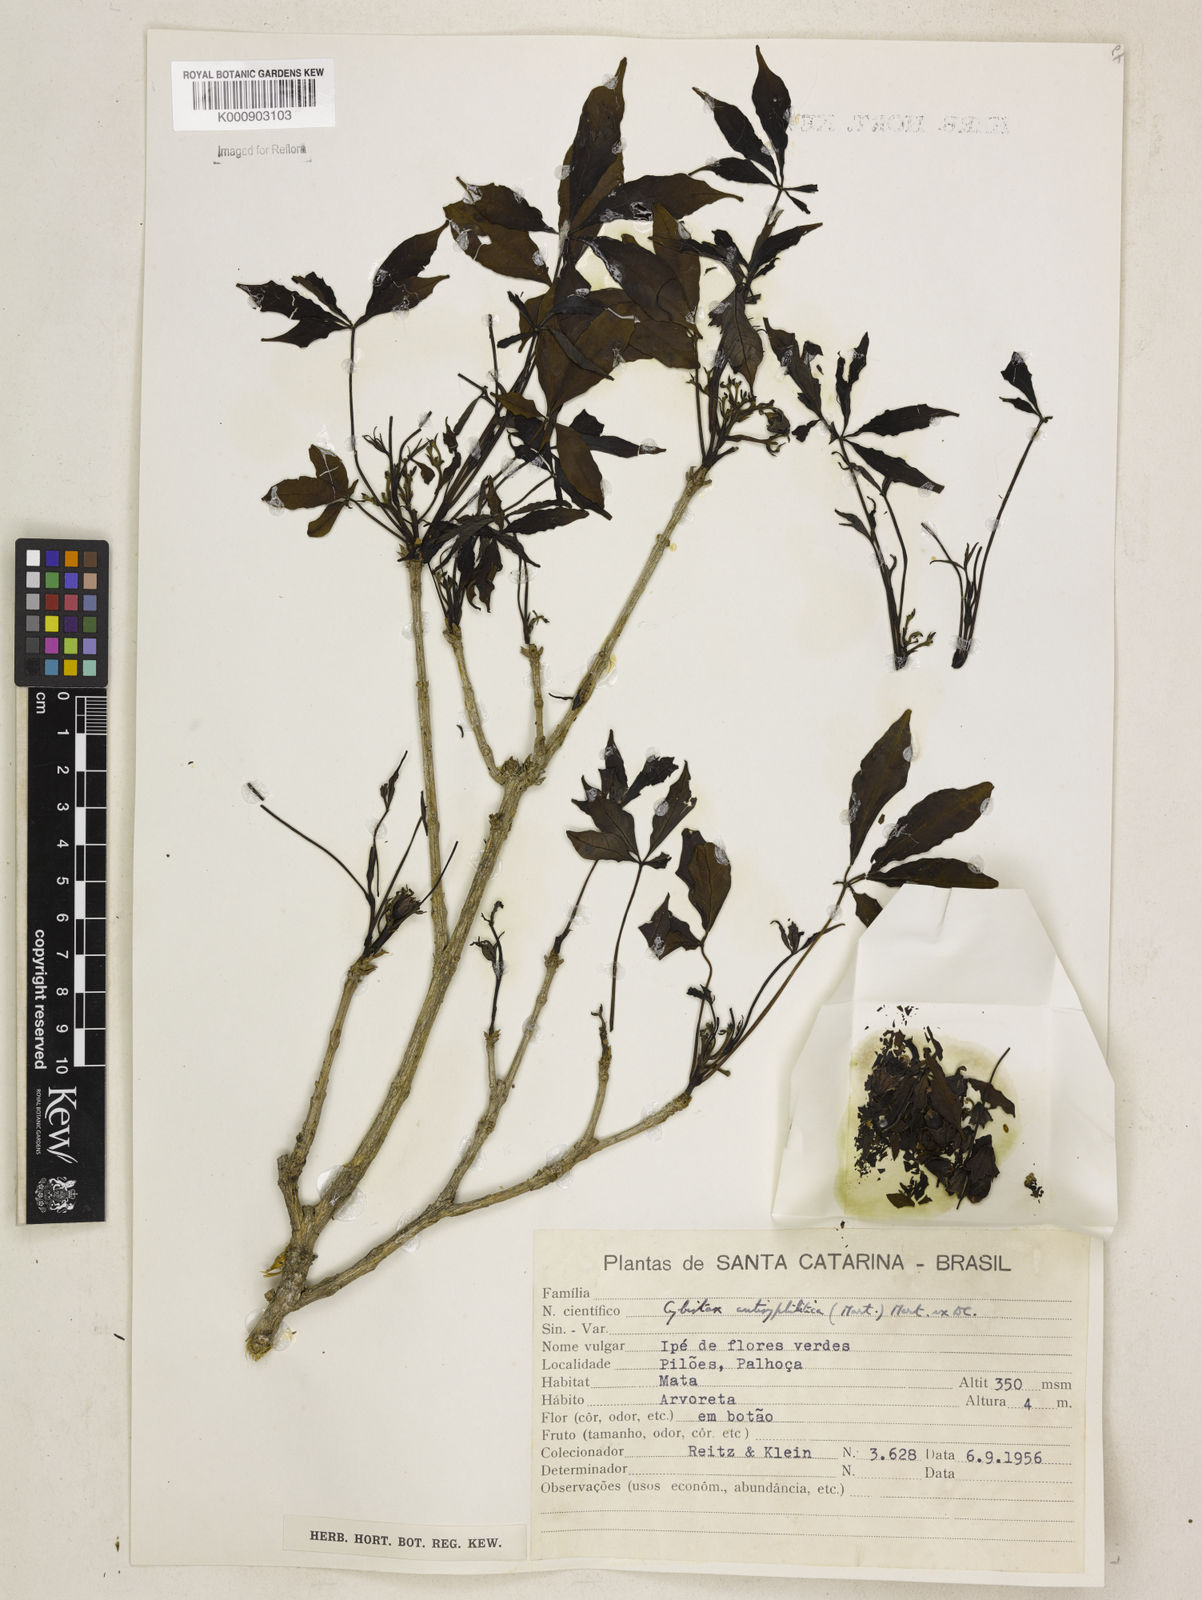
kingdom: Plantae
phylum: Tracheophyta
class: Magnoliopsida
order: Lamiales
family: Bignoniaceae
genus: Cybistax
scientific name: Cybistax antisyphilitica
